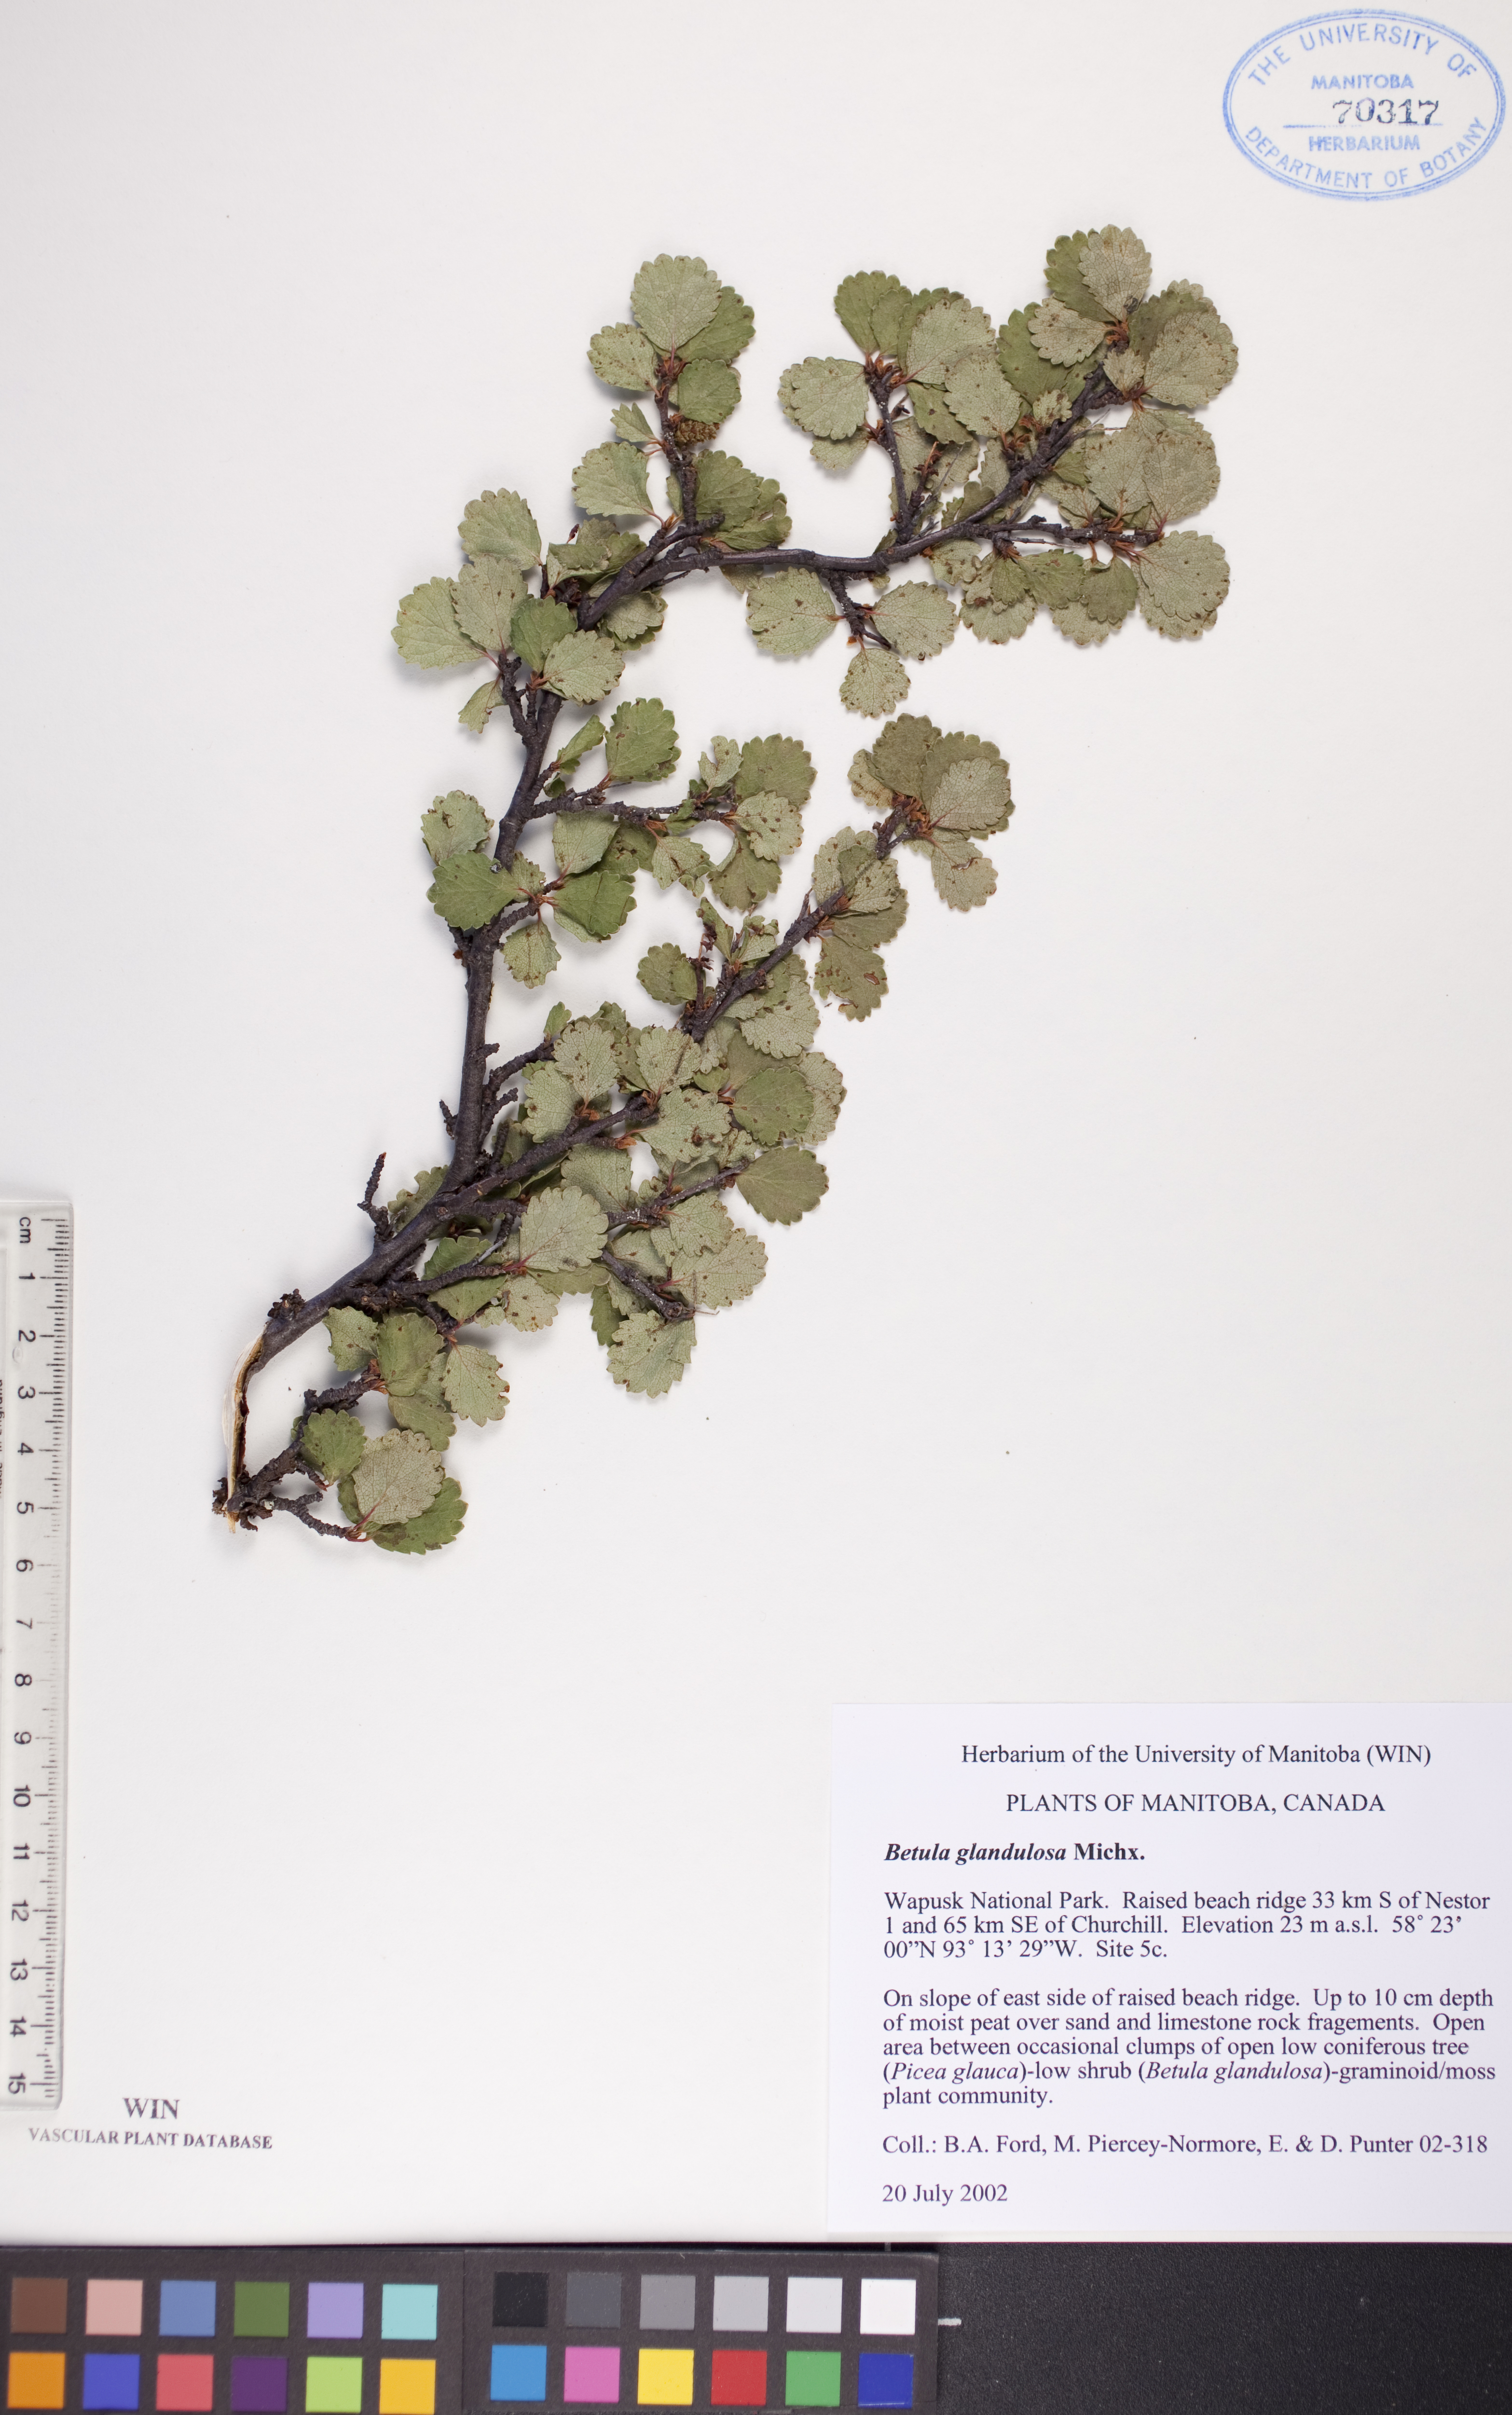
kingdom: Plantae
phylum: Tracheophyta
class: Magnoliopsida
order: Fagales
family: Betulaceae
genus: Betula
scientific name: Betula glandulosa
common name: Dwarf birch
